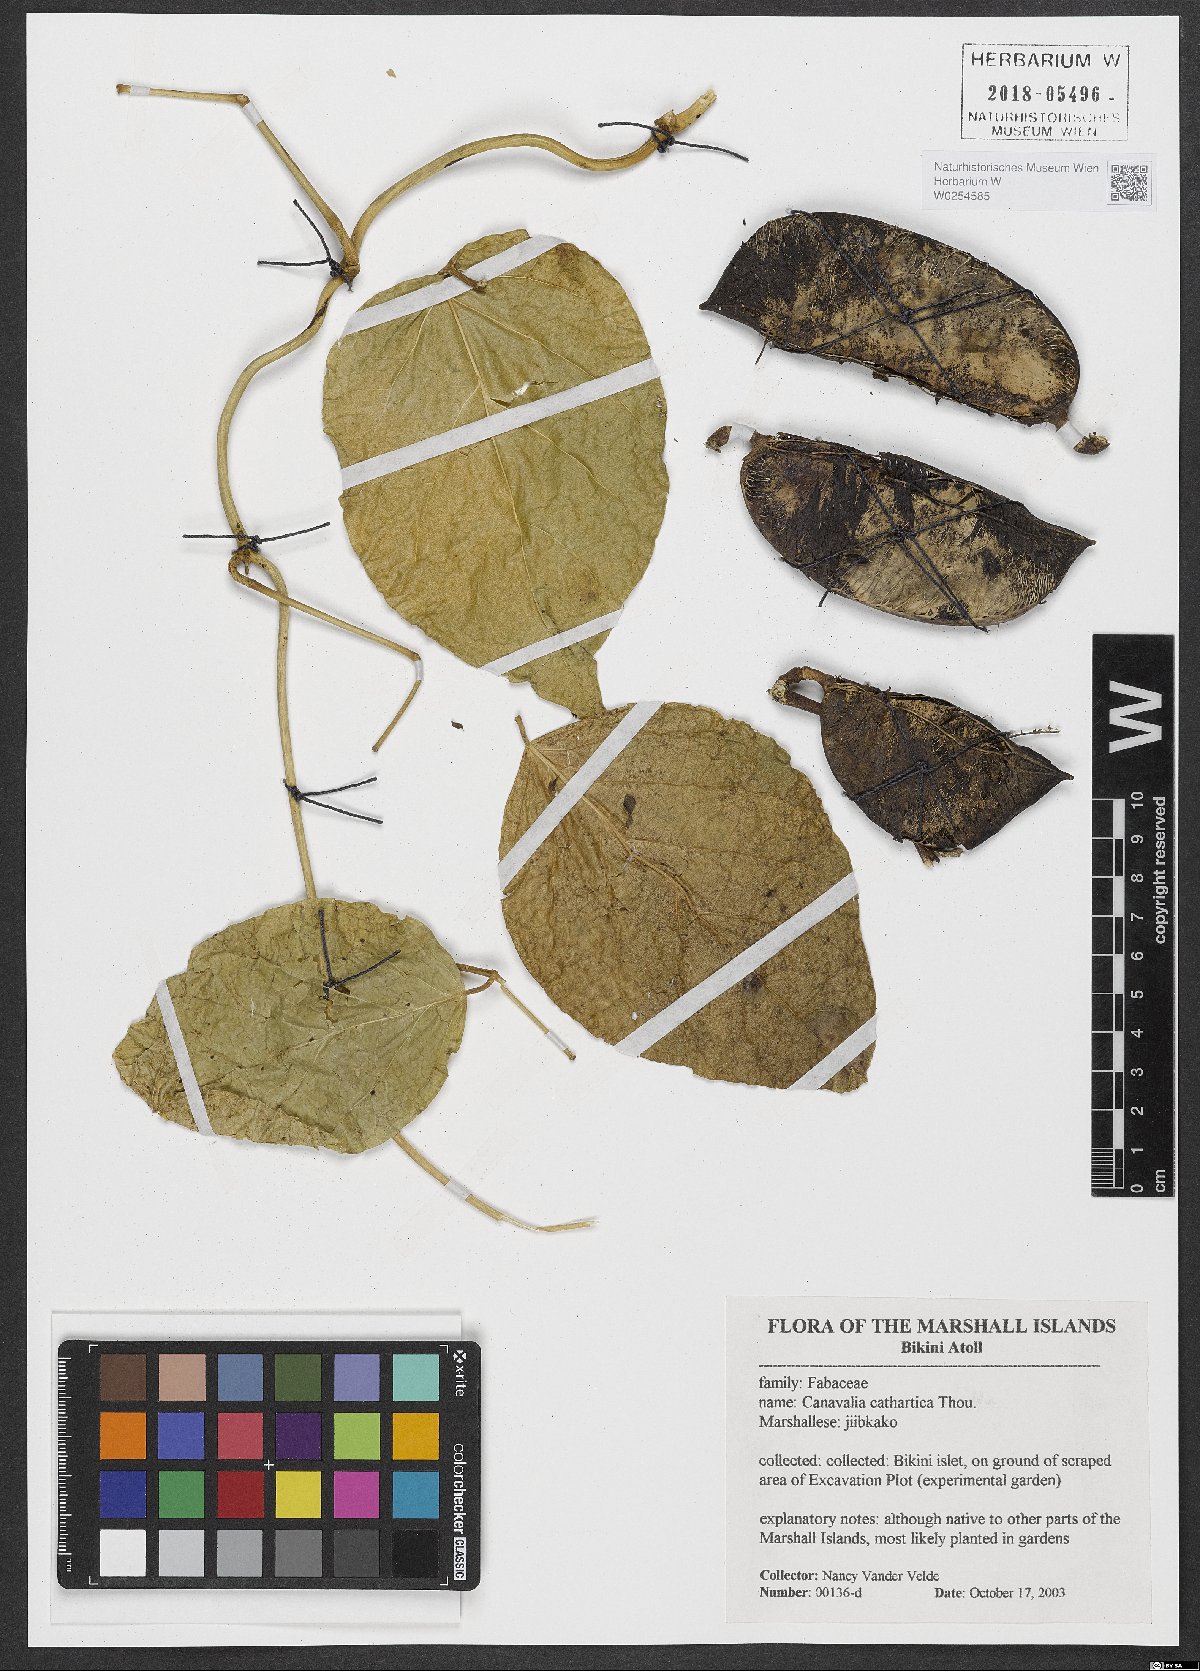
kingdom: Plantae
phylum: Tracheophyta
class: Magnoliopsida
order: Fabales
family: Fabaceae
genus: Canavalia
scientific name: Canavalia cathartica
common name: Maunaloa
